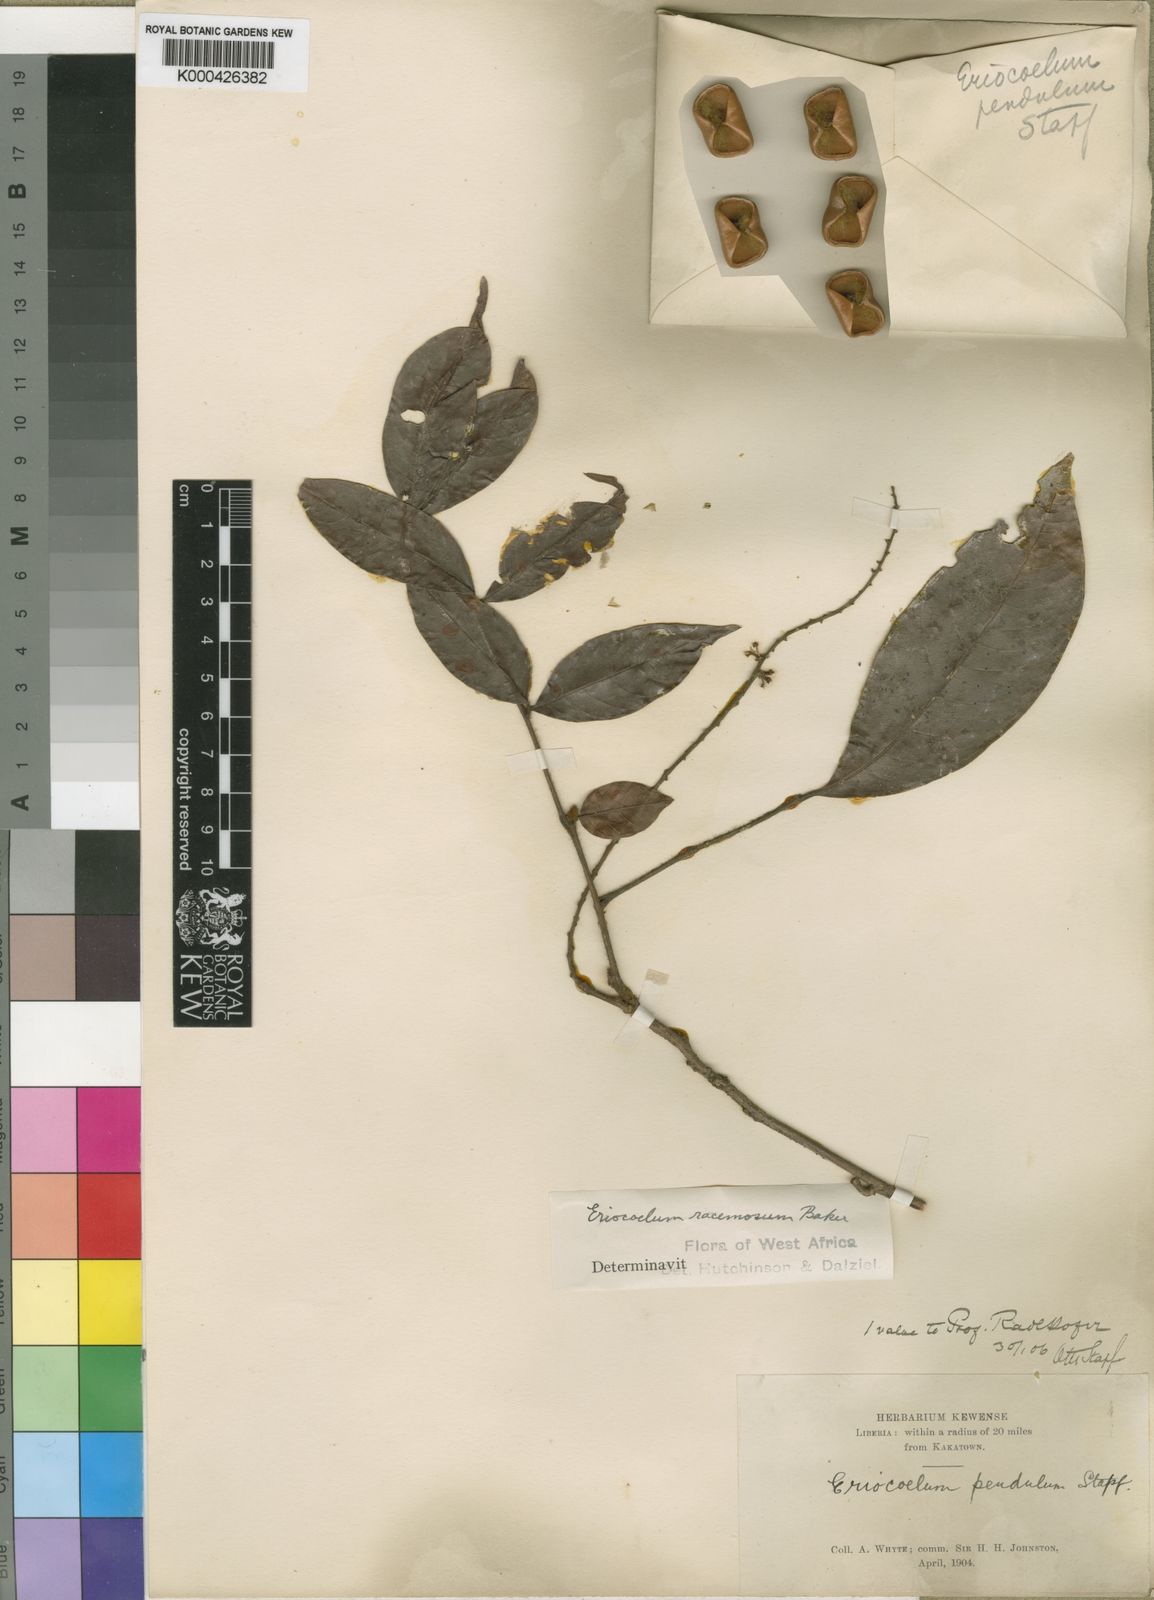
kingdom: Plantae
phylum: Tracheophyta
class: Magnoliopsida
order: Sapindales
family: Sapindaceae
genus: Eriocoelum
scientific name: Eriocoelum racemosum
